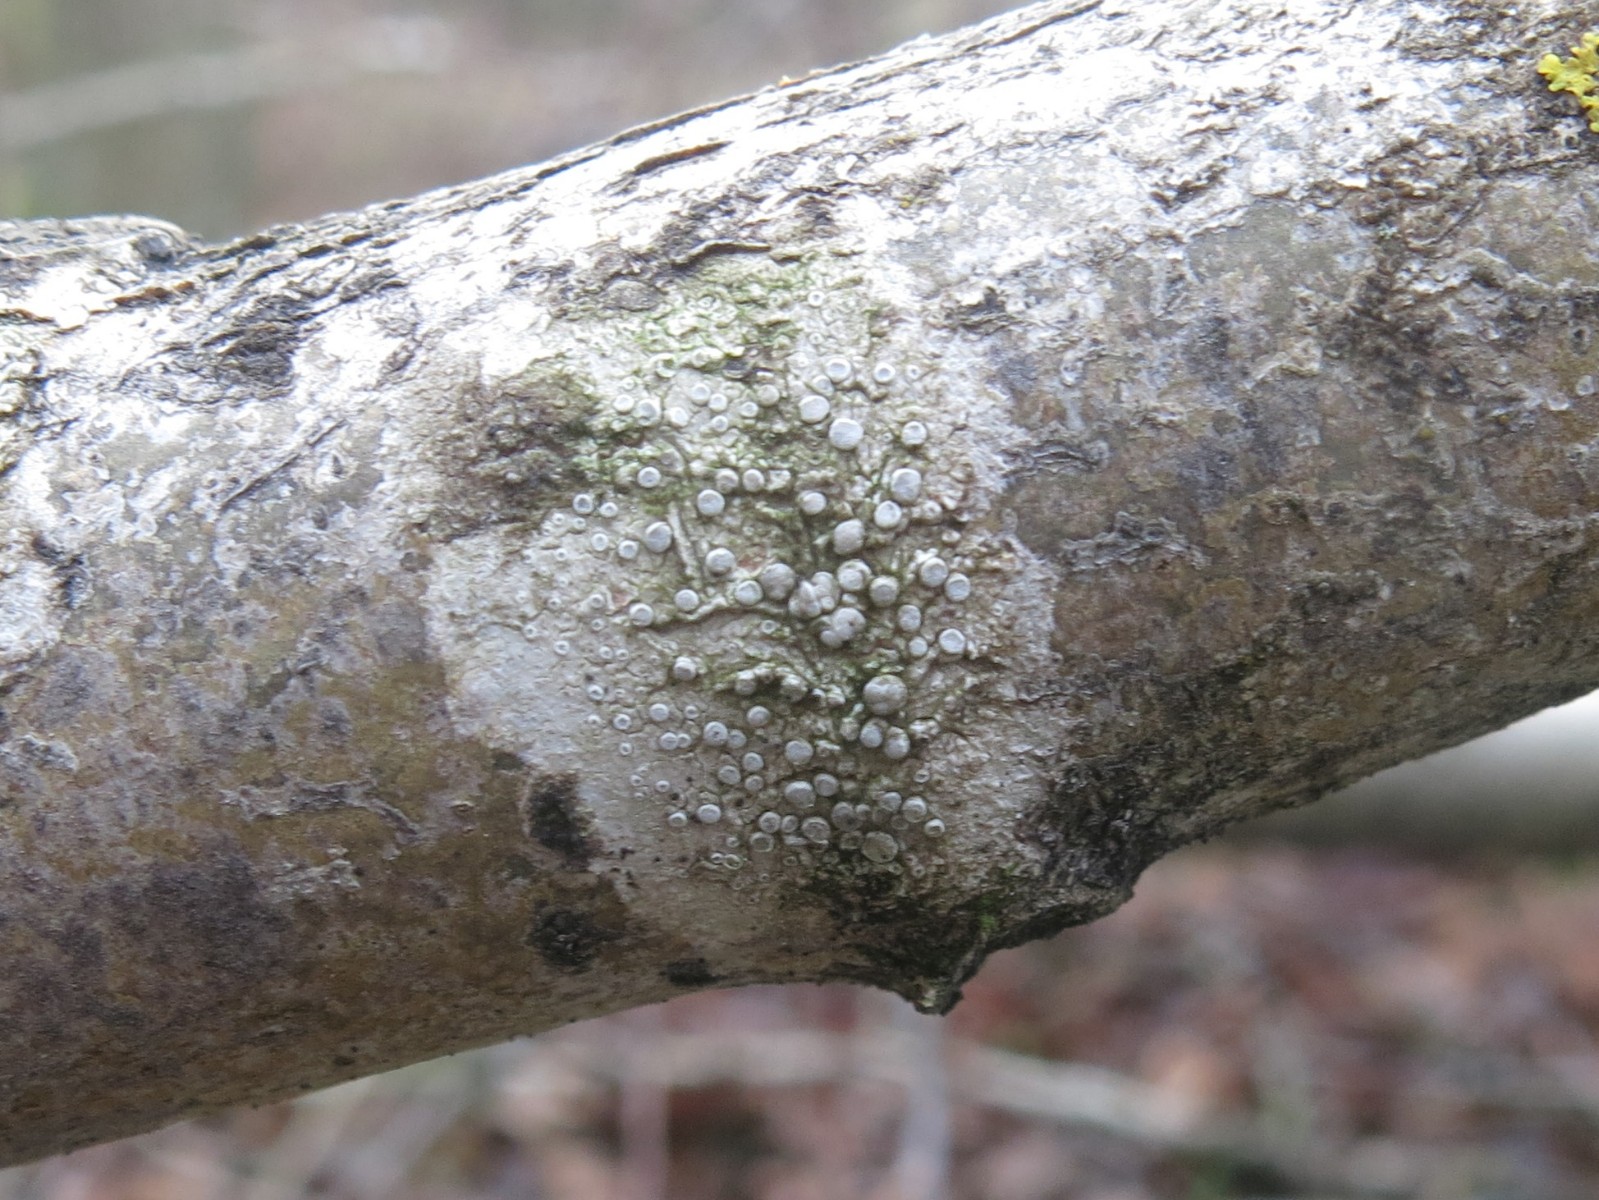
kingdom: Fungi
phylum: Ascomycota
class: Lecanoromycetes
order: Lecanorales
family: Lecanoraceae
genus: Glaucomaria
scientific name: Glaucomaria carpinea
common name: hviddugget kantskivelav
